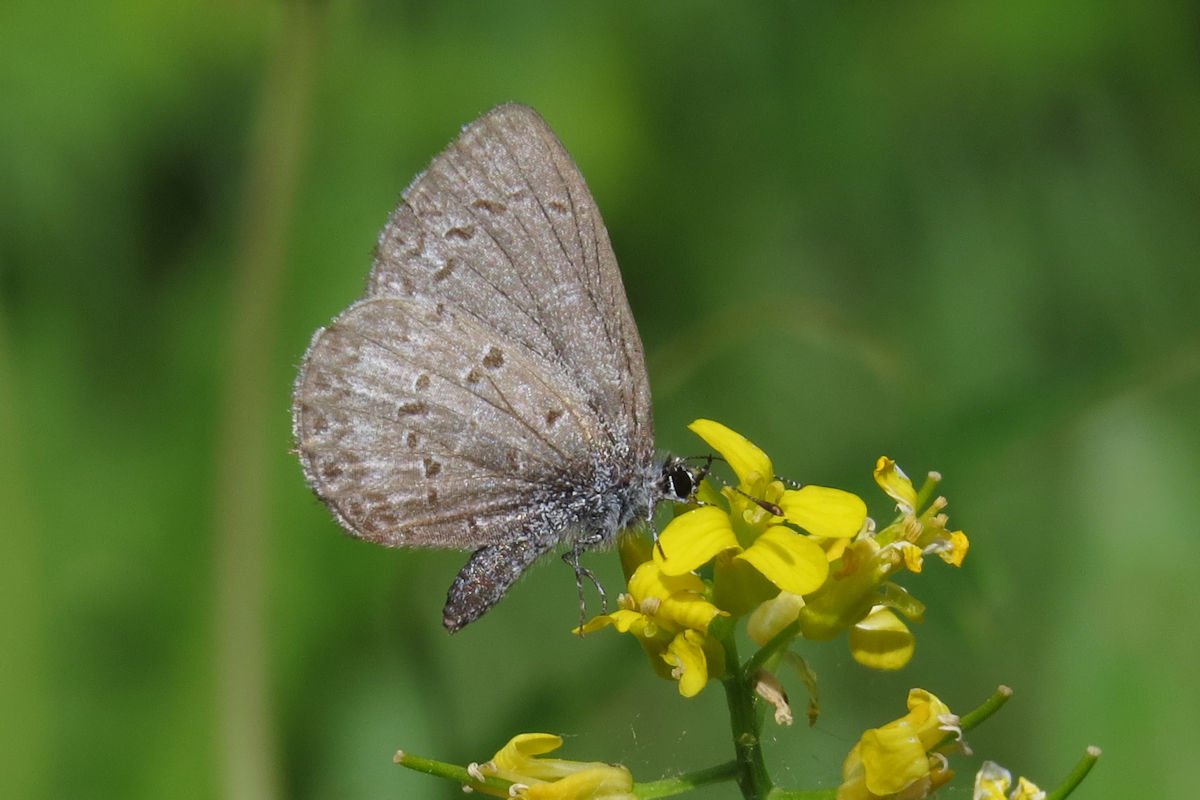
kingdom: Animalia
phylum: Arthropoda
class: Insecta
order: Lepidoptera
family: Lycaenidae
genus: Celastrina
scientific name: Celastrina lucia
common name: Northern Spring Azure
